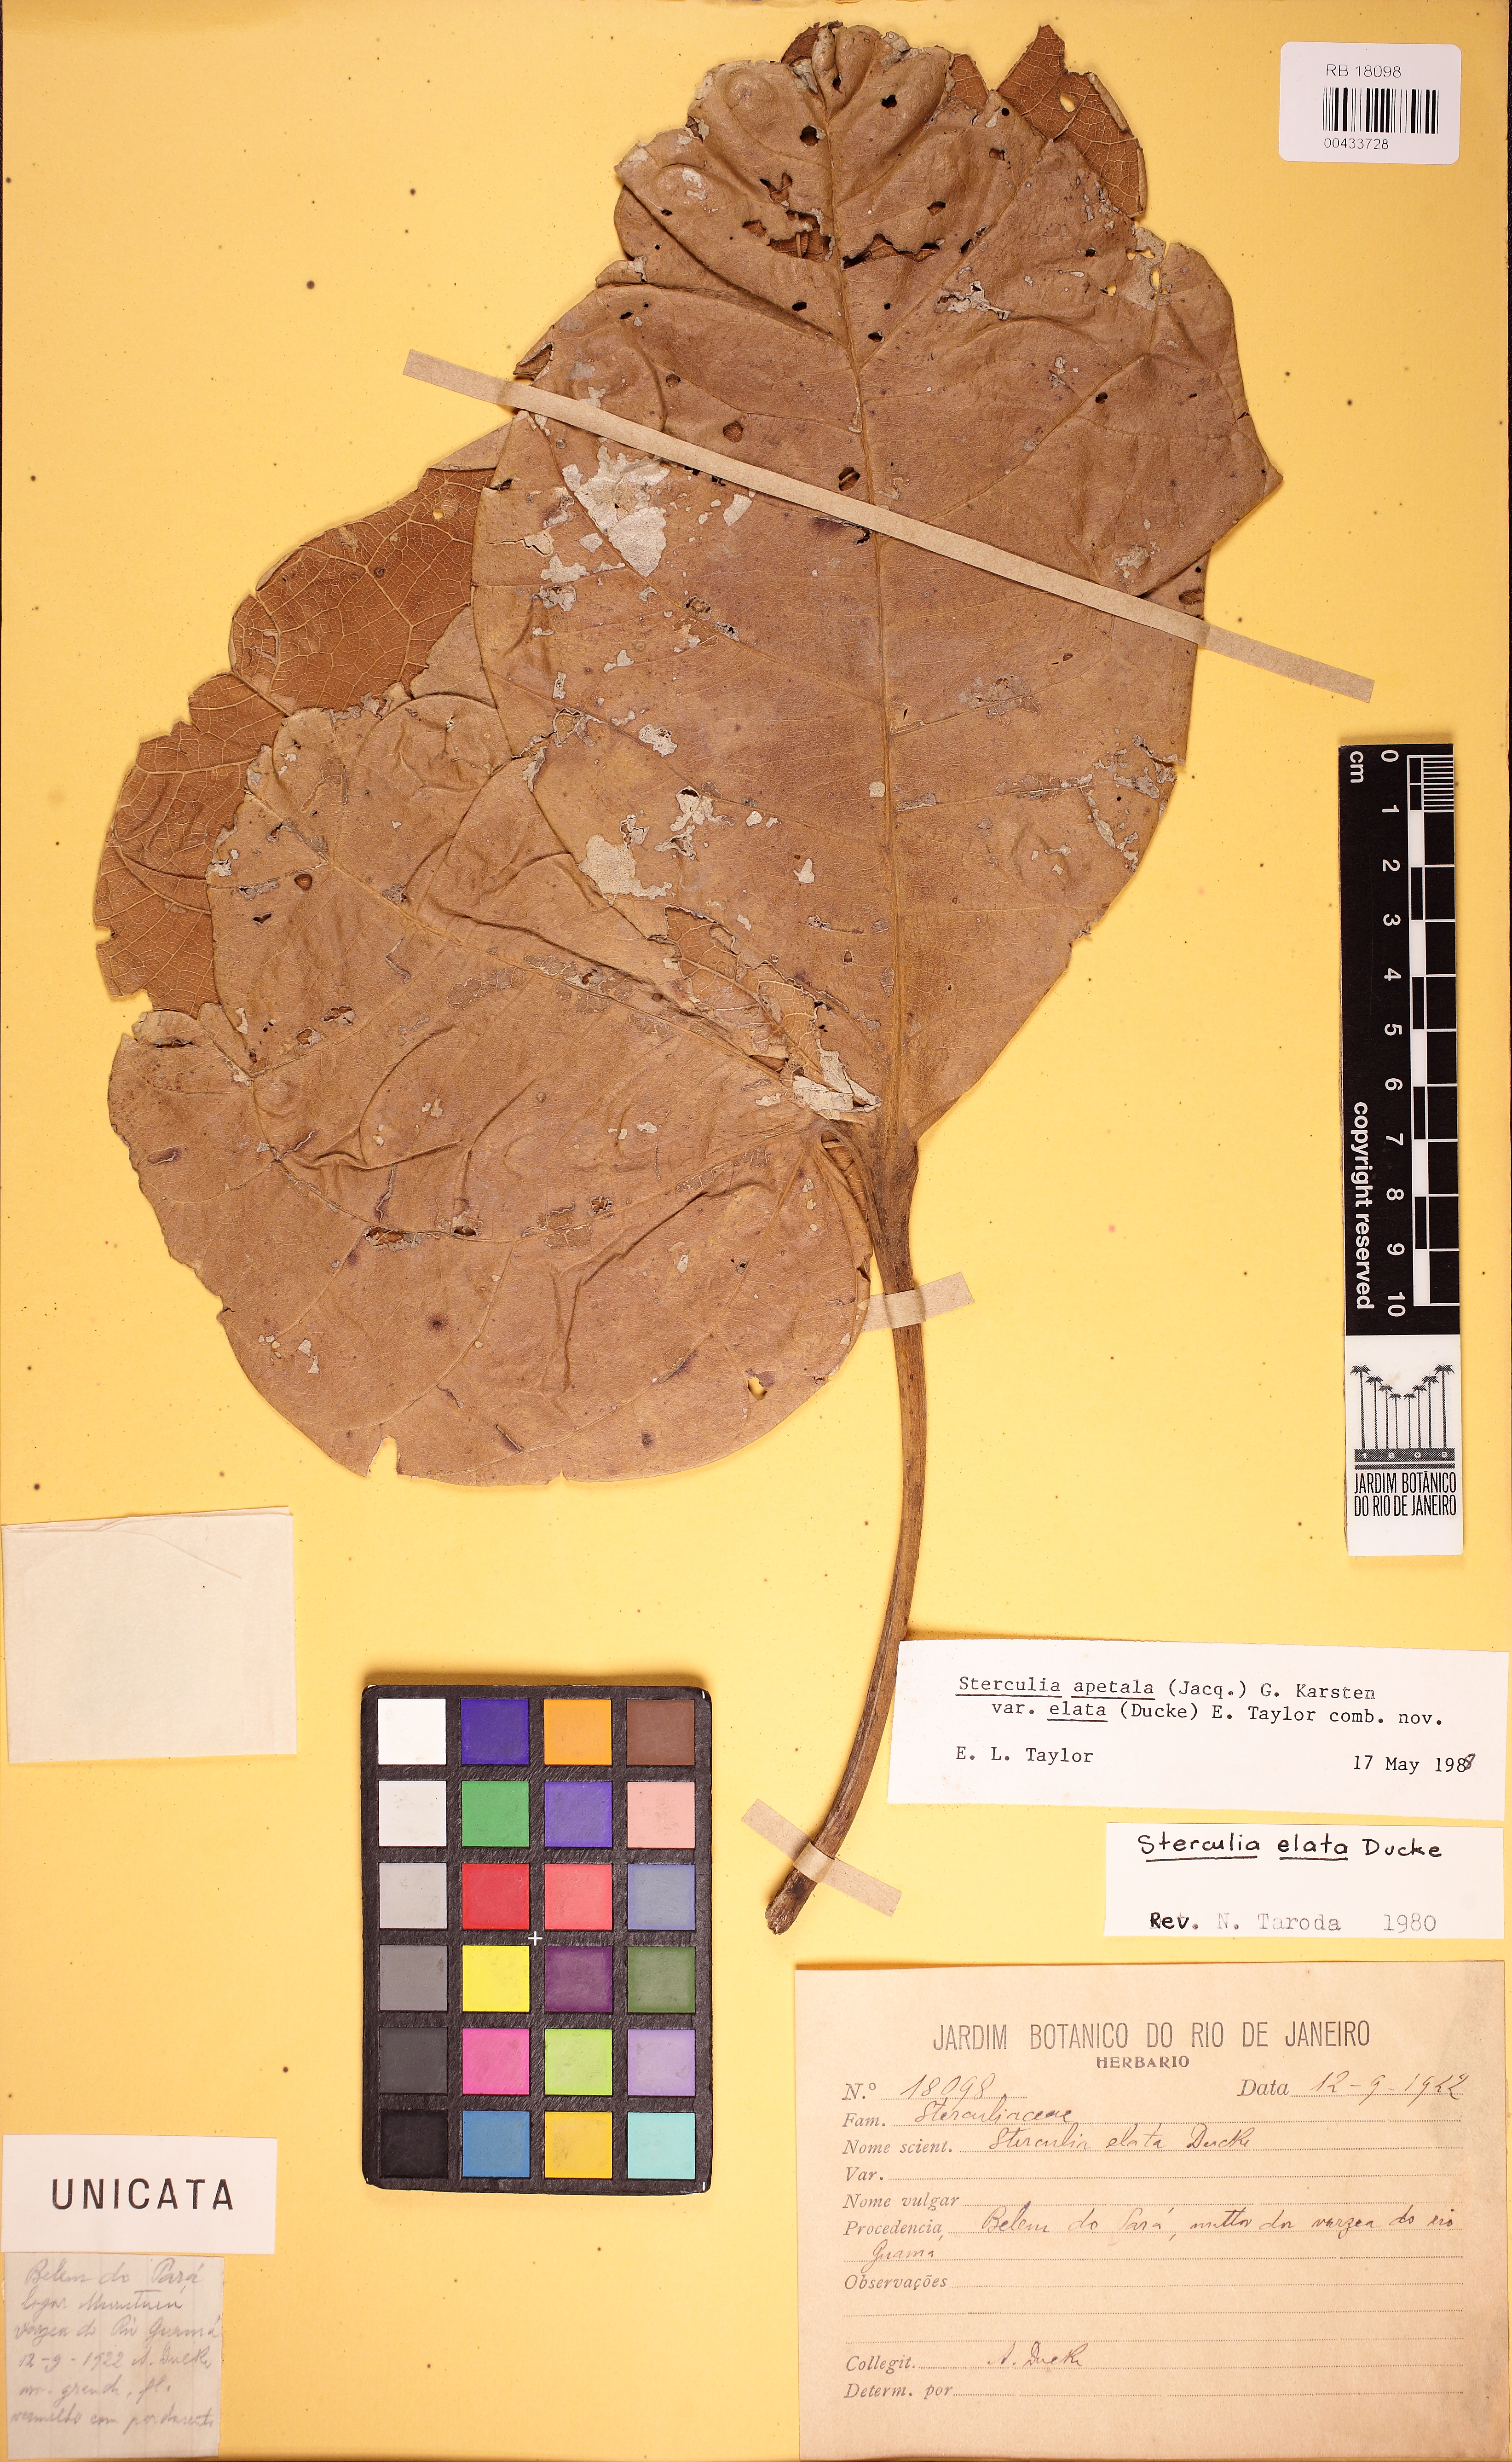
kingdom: Plantae
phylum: Tracheophyta
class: Magnoliopsida
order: Malvales
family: Malvaceae
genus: Sterculia
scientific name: Sterculia apetala
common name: Panama tree
